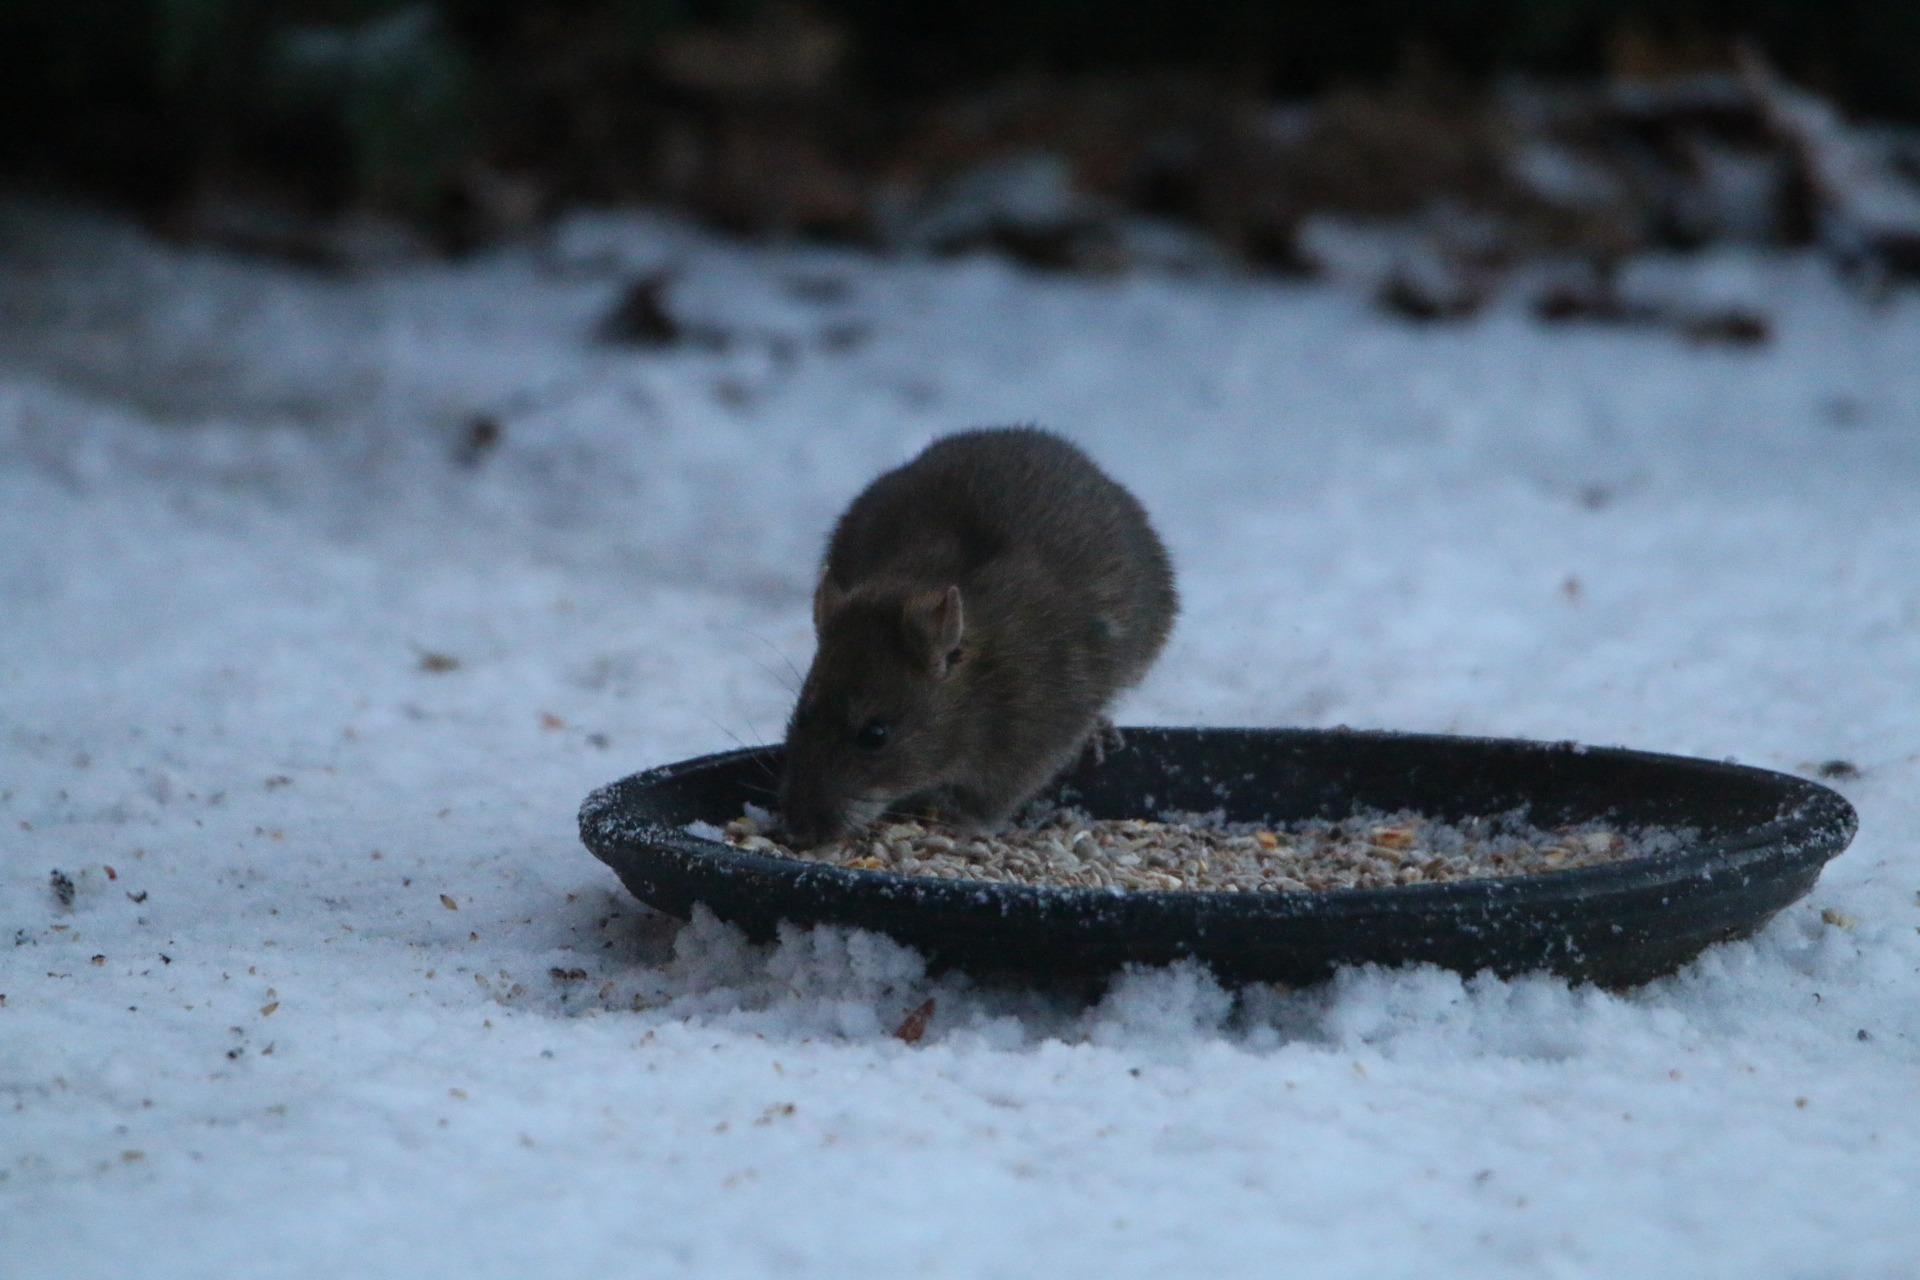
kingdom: Animalia
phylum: Chordata
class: Mammalia
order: Rodentia
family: Muridae
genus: Rattus
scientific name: Rattus norvegicus
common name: Brun rotte
